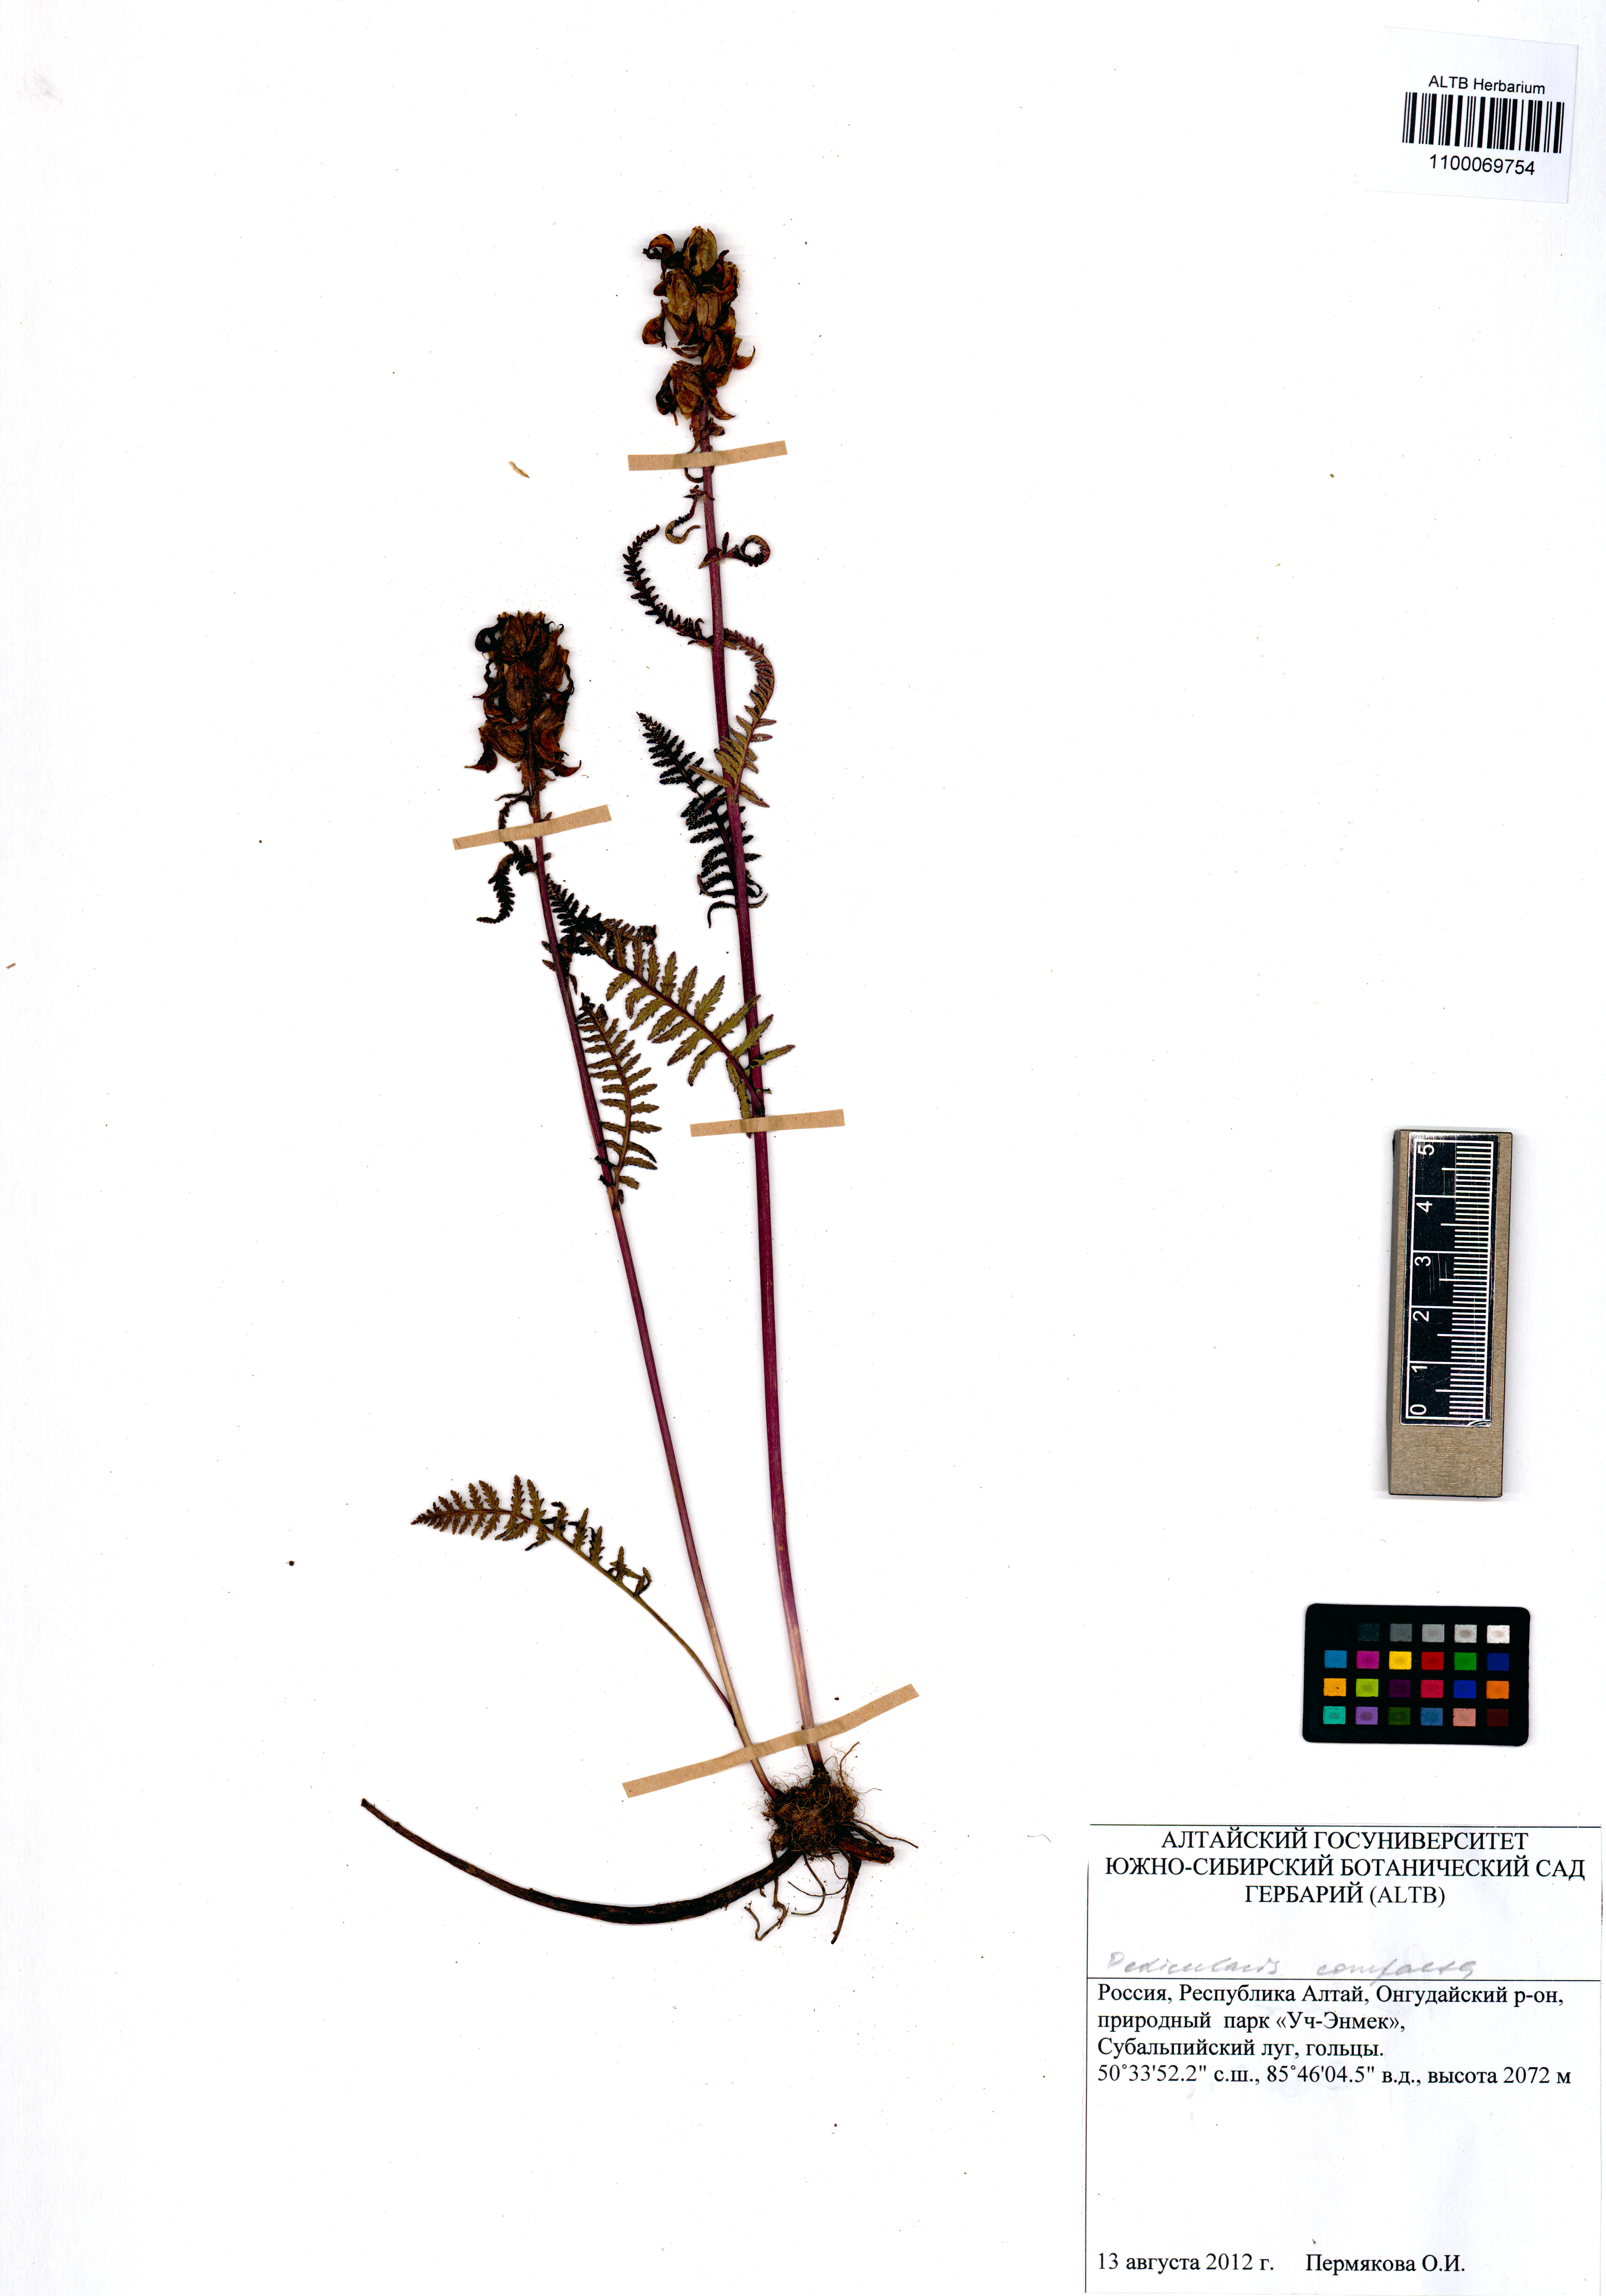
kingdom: Plantae
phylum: Tracheophyta
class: Magnoliopsida
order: Lamiales
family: Orobanchaceae
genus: Pedicularis
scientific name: Pedicularis compacta
